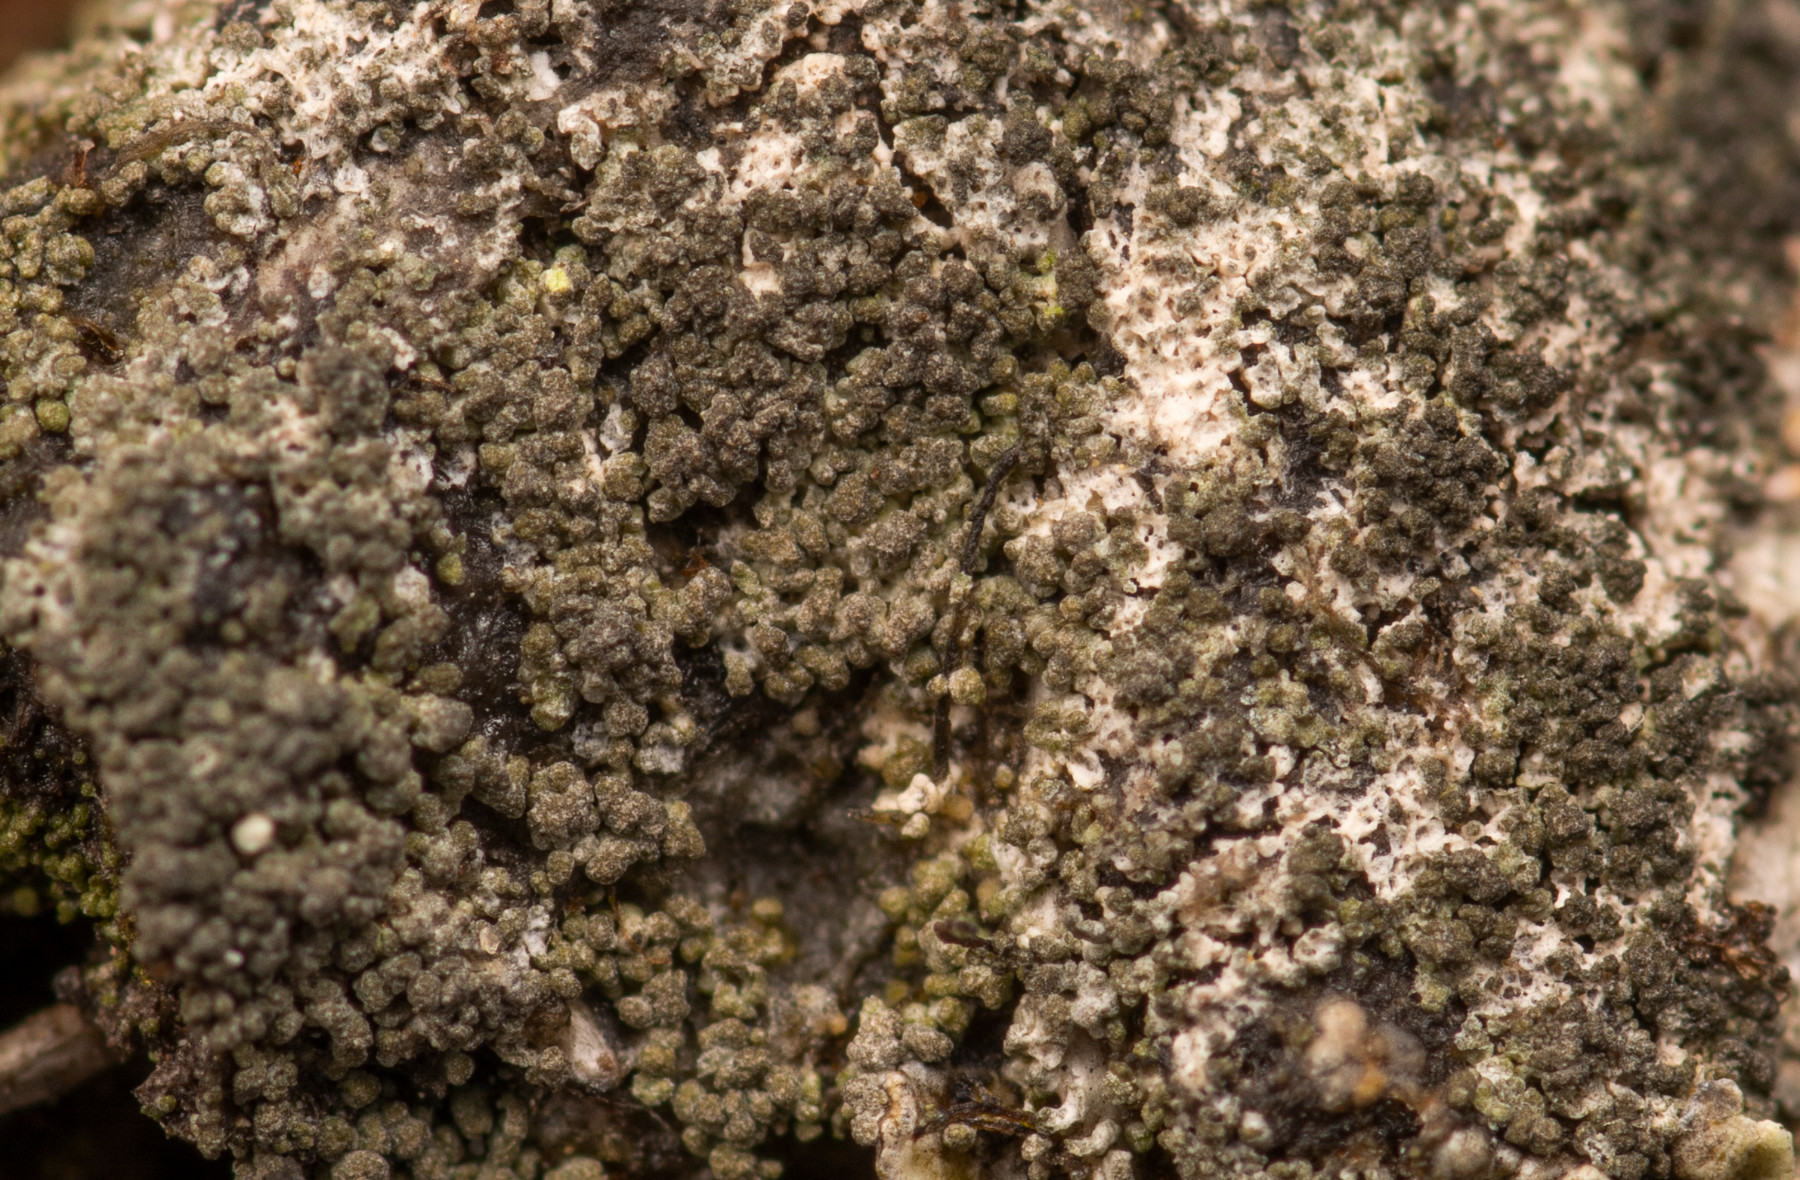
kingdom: Fungi
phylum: Ascomycota
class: Lecanoromycetes
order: Lecanorales
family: Byssolomataceae
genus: Micarea
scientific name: Micarea leprosula
